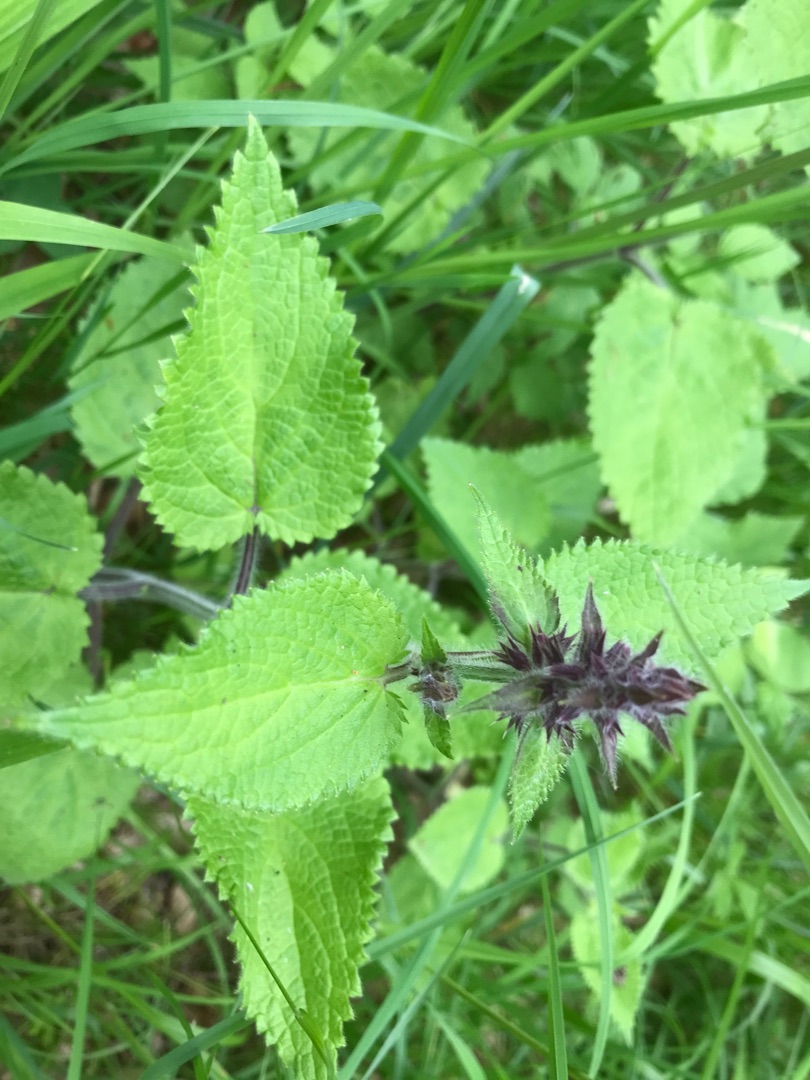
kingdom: Plantae
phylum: Tracheophyta
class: Magnoliopsida
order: Lamiales
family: Lamiaceae
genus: Stachys
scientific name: Stachys sylvatica
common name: Skov-galtetand
